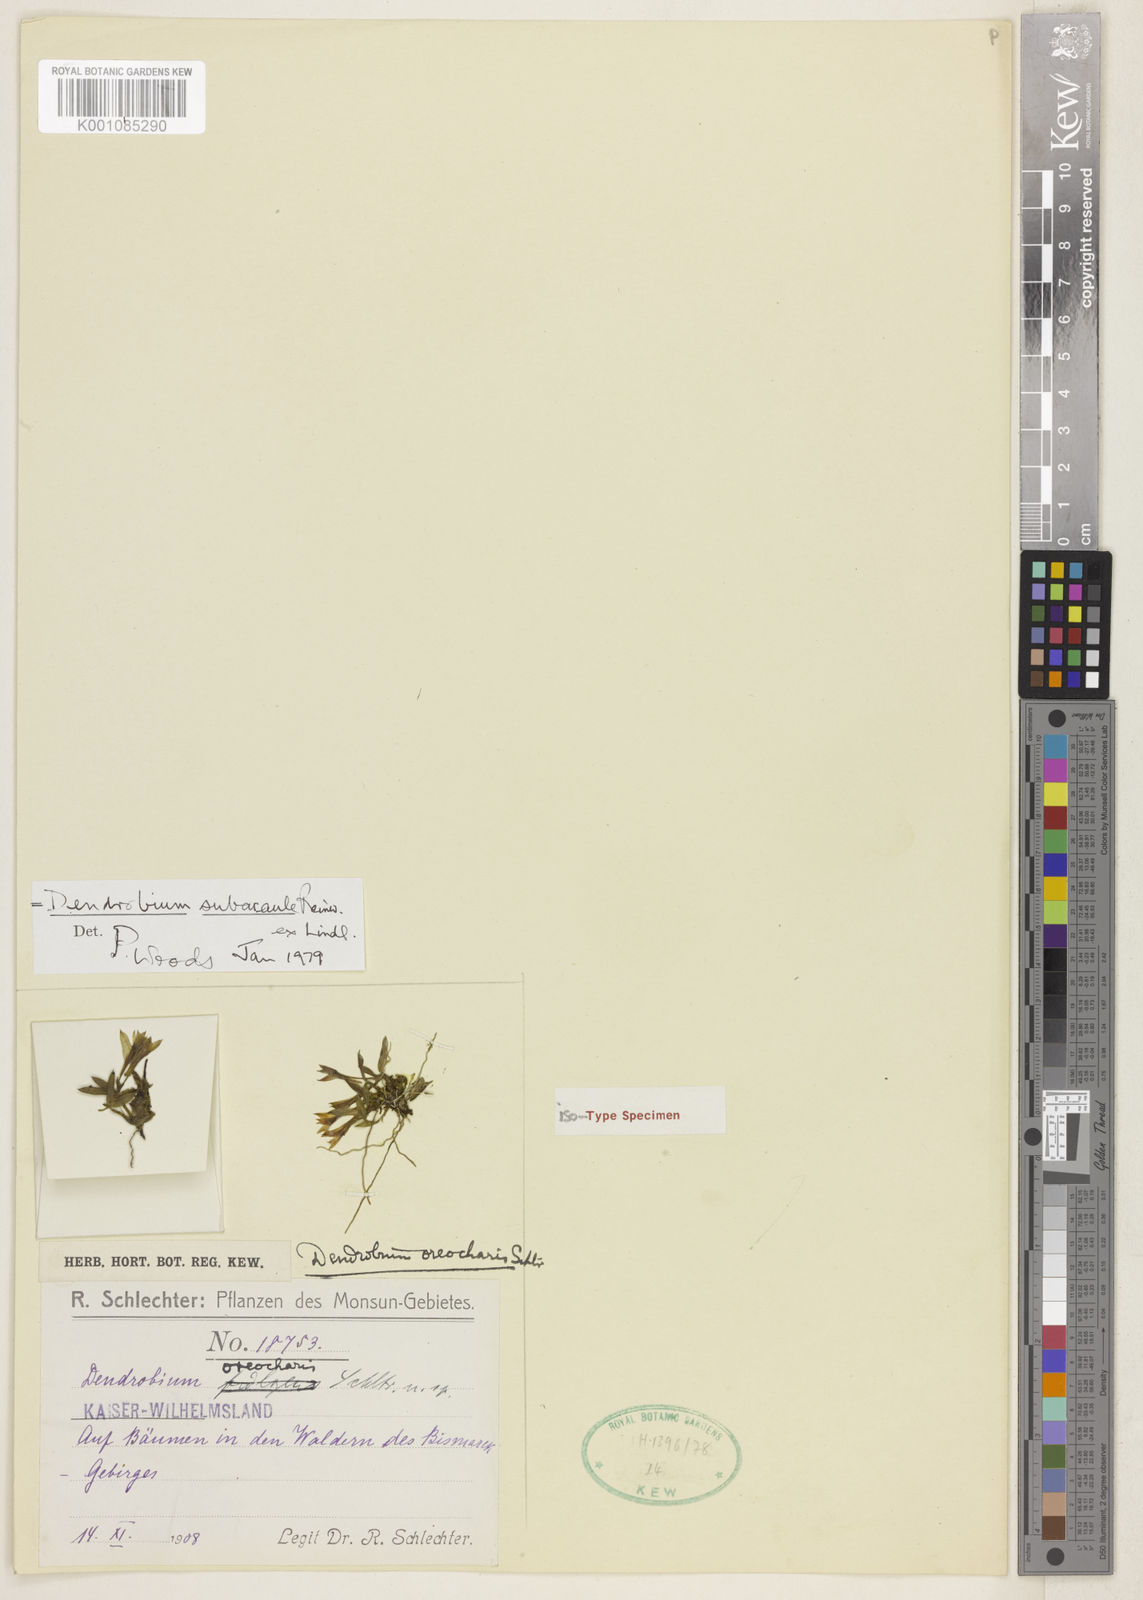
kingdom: Plantae
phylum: Tracheophyta
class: Liliopsida
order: Asparagales
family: Orchidaceae
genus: Dendrobium
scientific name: Dendrobium subacaule
